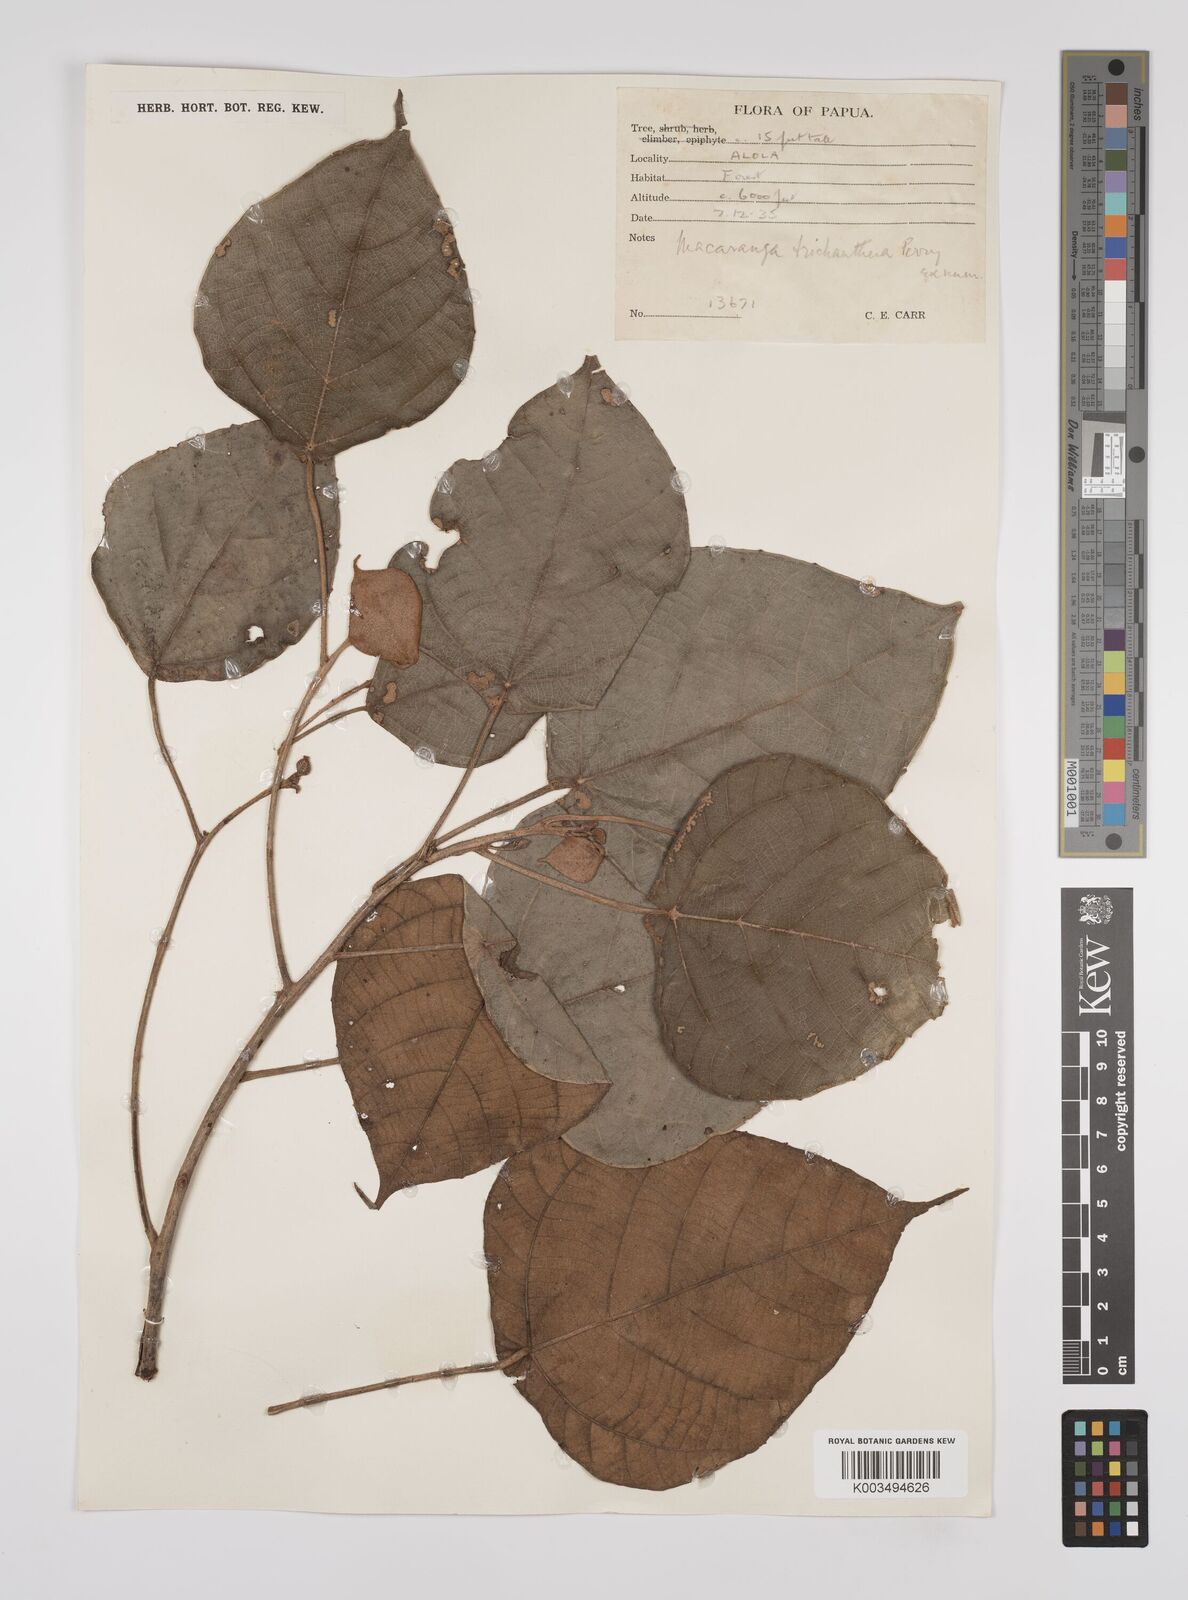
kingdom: Plantae
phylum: Tracheophyta
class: Magnoliopsida
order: Malpighiales
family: Euphorbiaceae
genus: Macaranga
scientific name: Macaranga trichanthera
